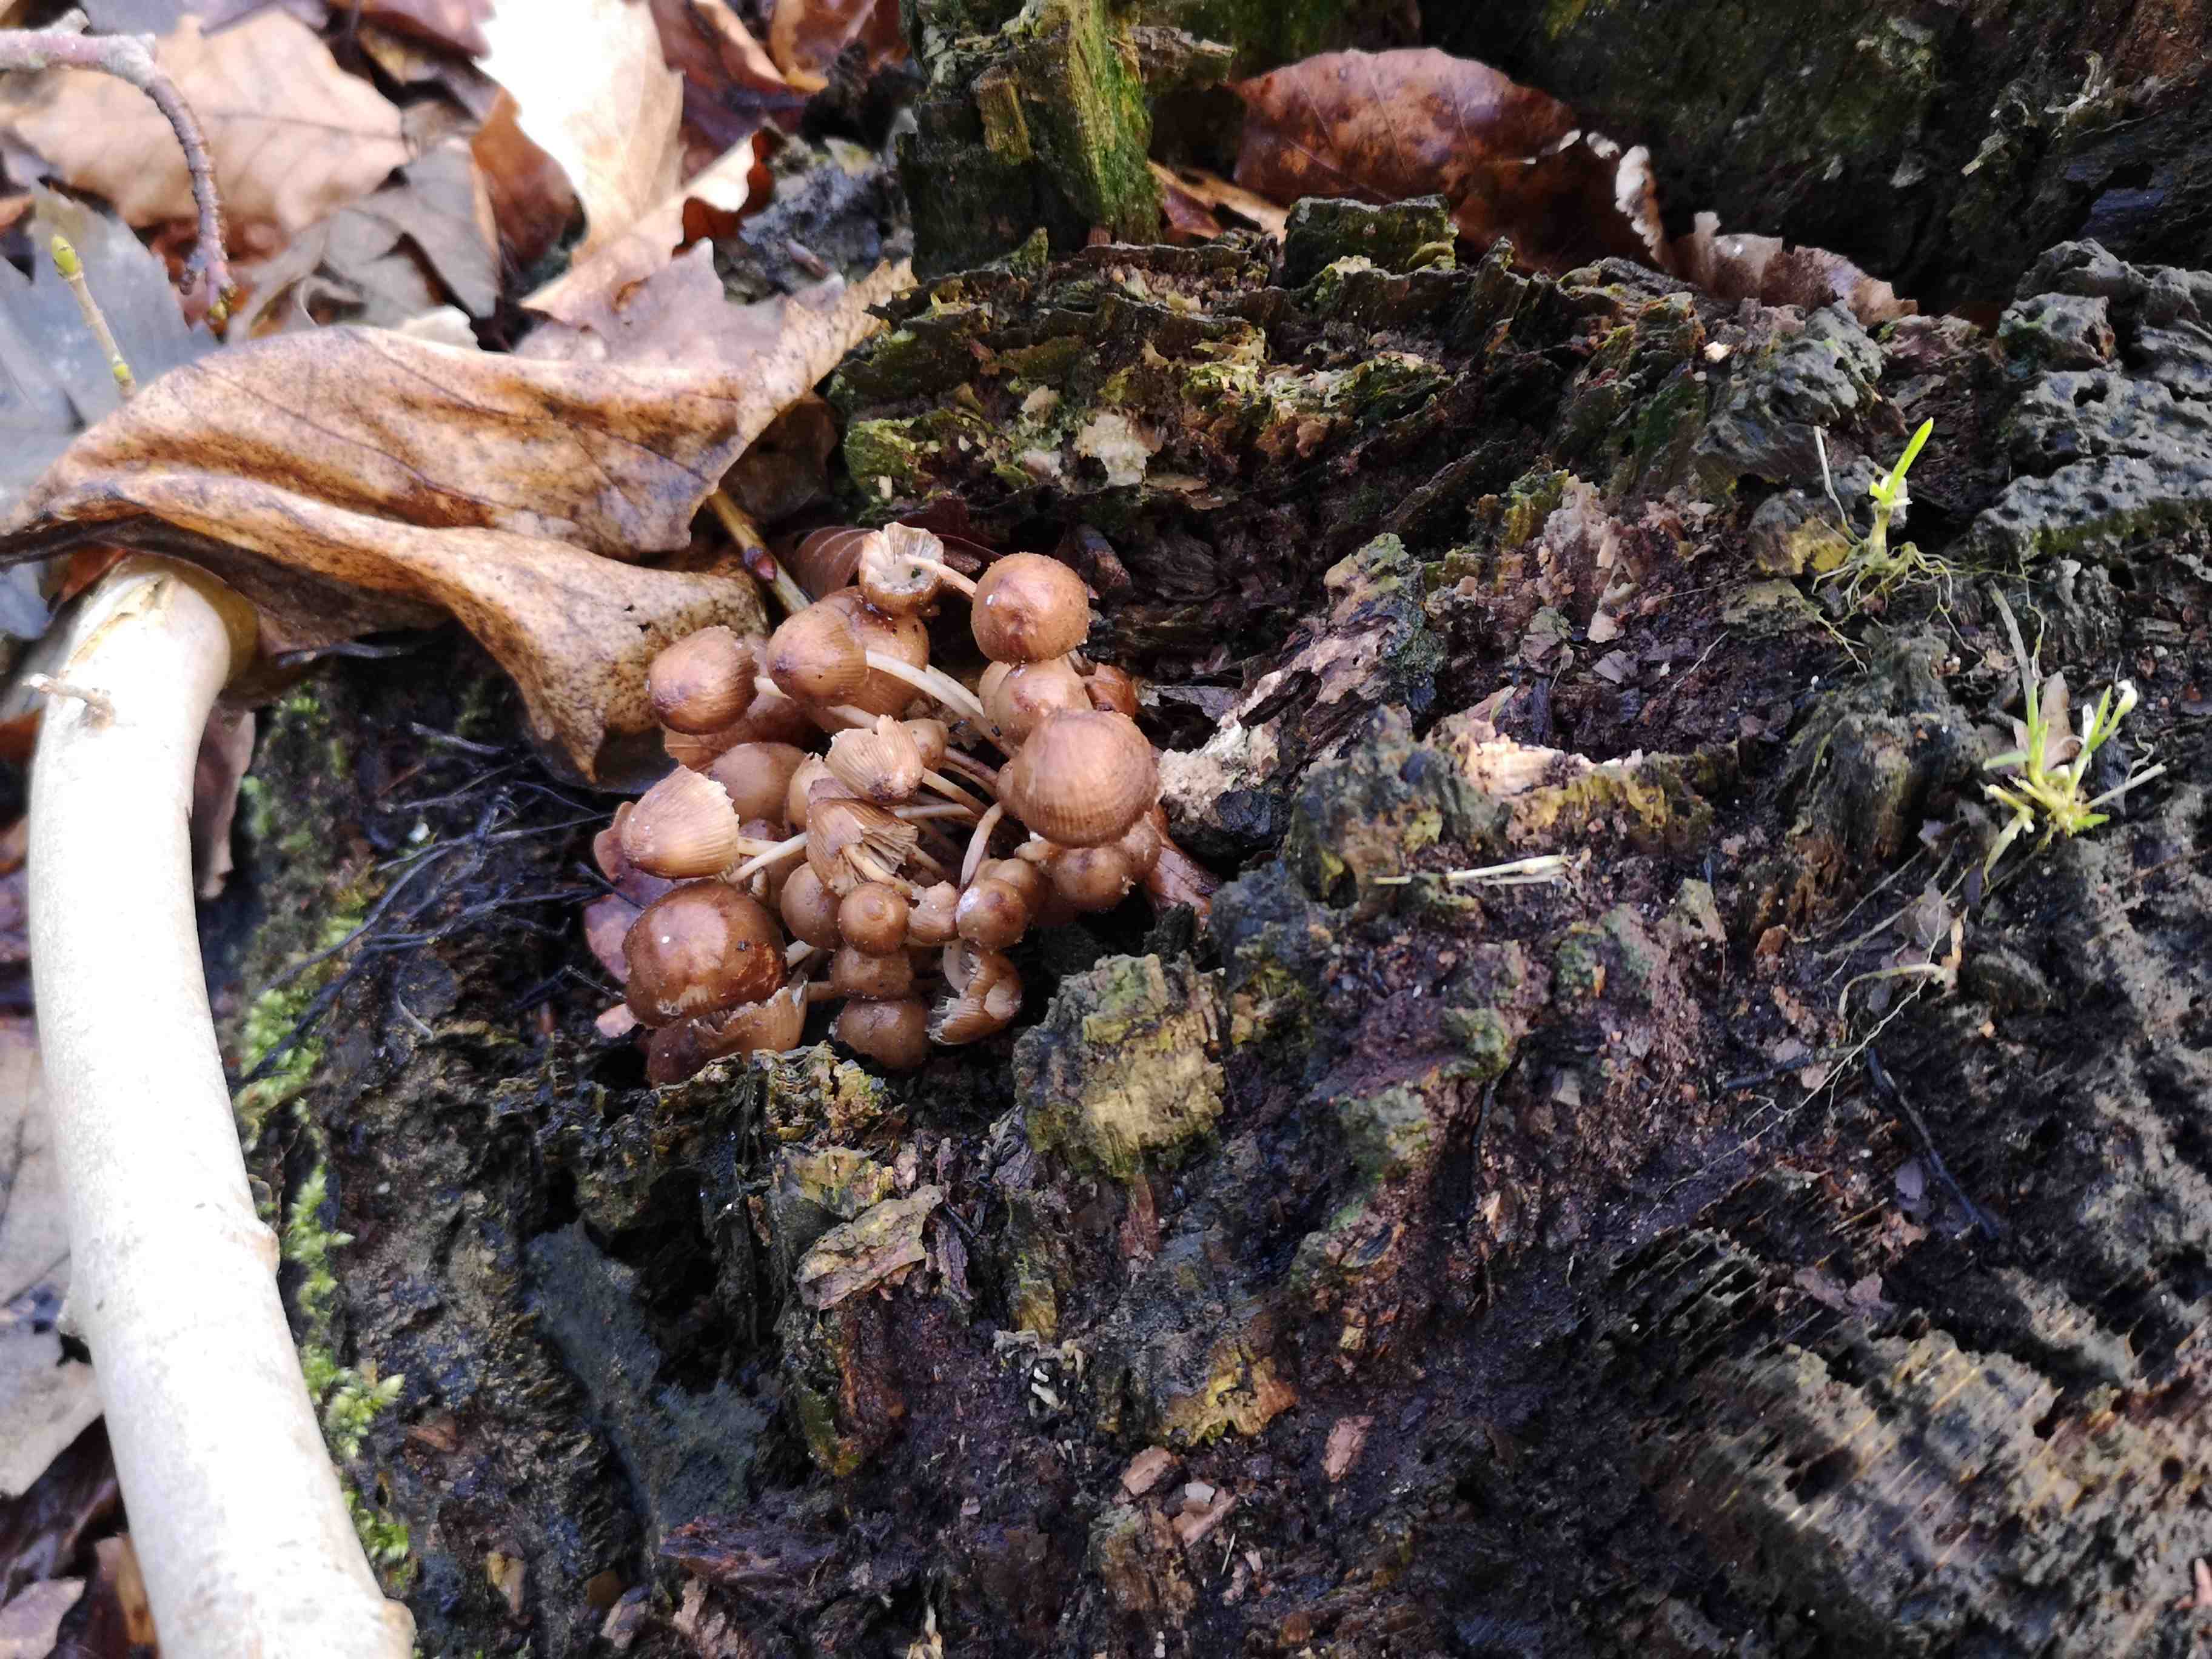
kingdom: Fungi
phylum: Basidiomycota
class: Agaricomycetes
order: Agaricales
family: Mycenaceae
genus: Mycena
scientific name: Mycena tintinnabulum
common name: vinter-huesvamp
